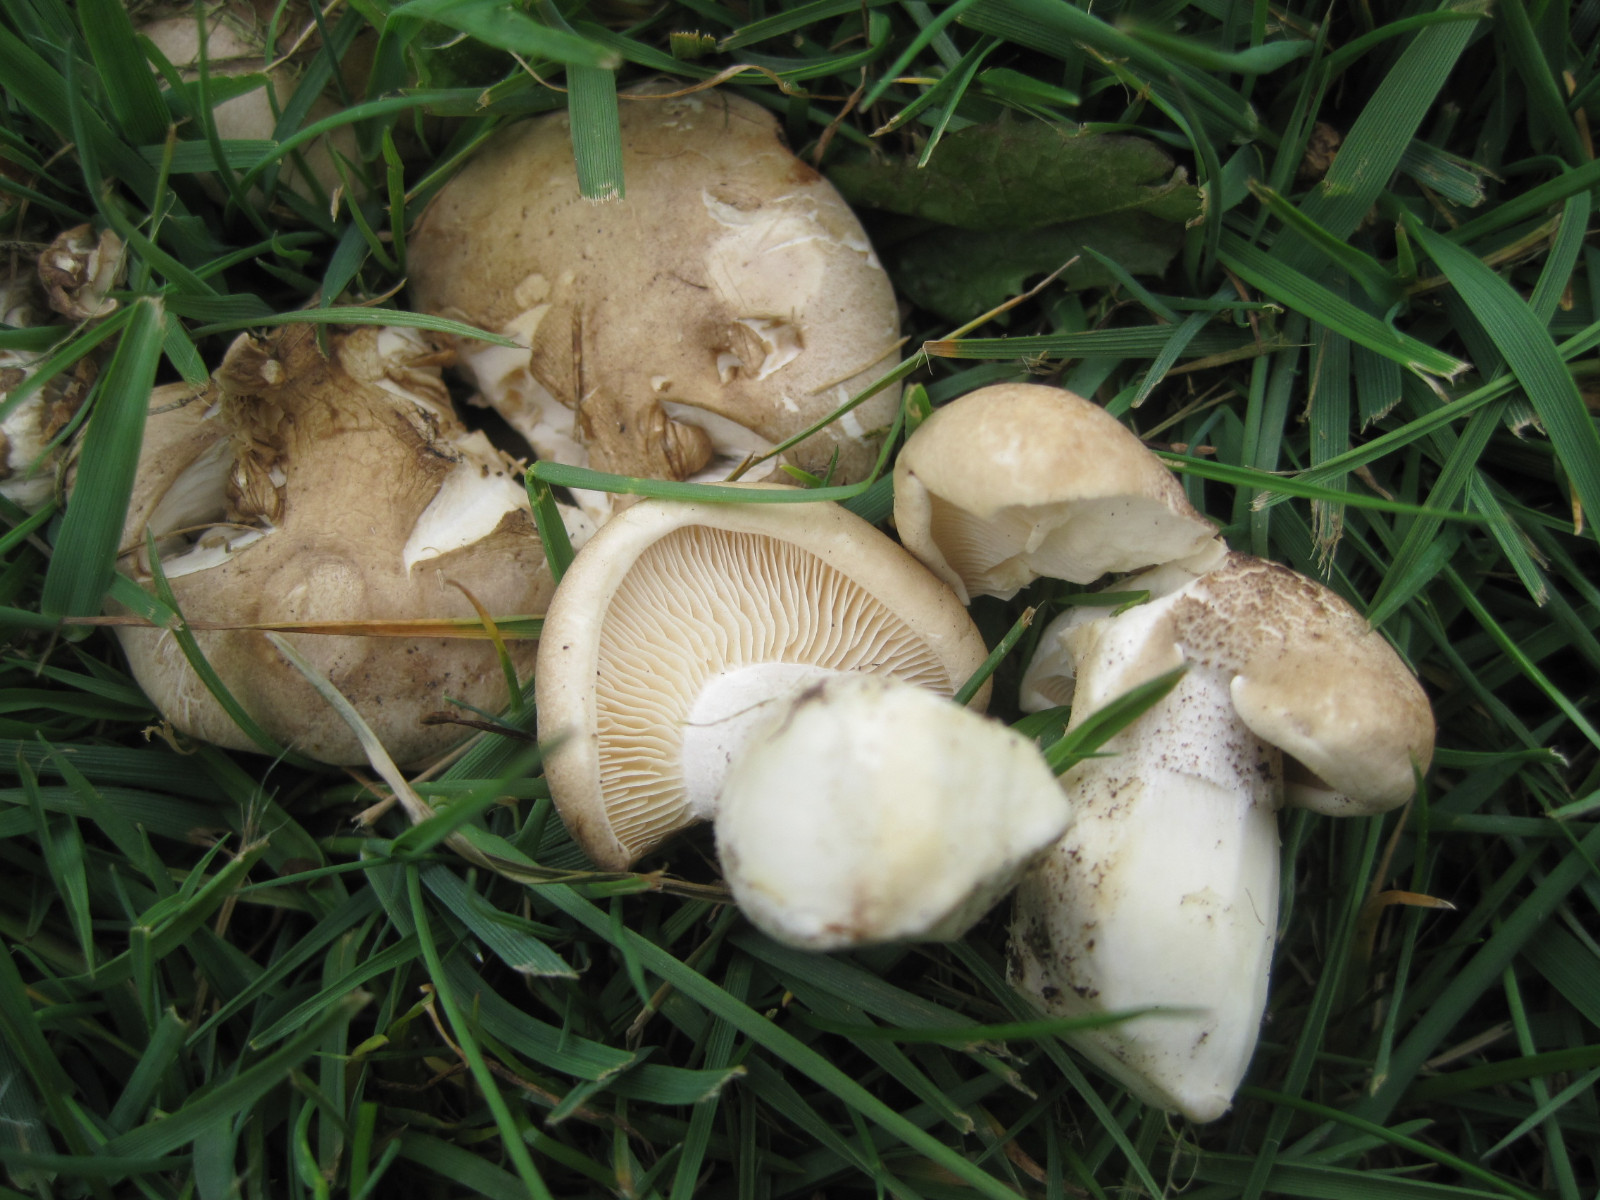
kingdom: Fungi
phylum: Basidiomycota
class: Agaricomycetes
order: Agaricales
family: Lyophyllaceae
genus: Calocybe
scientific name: Calocybe gambosa
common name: vårmusseron
